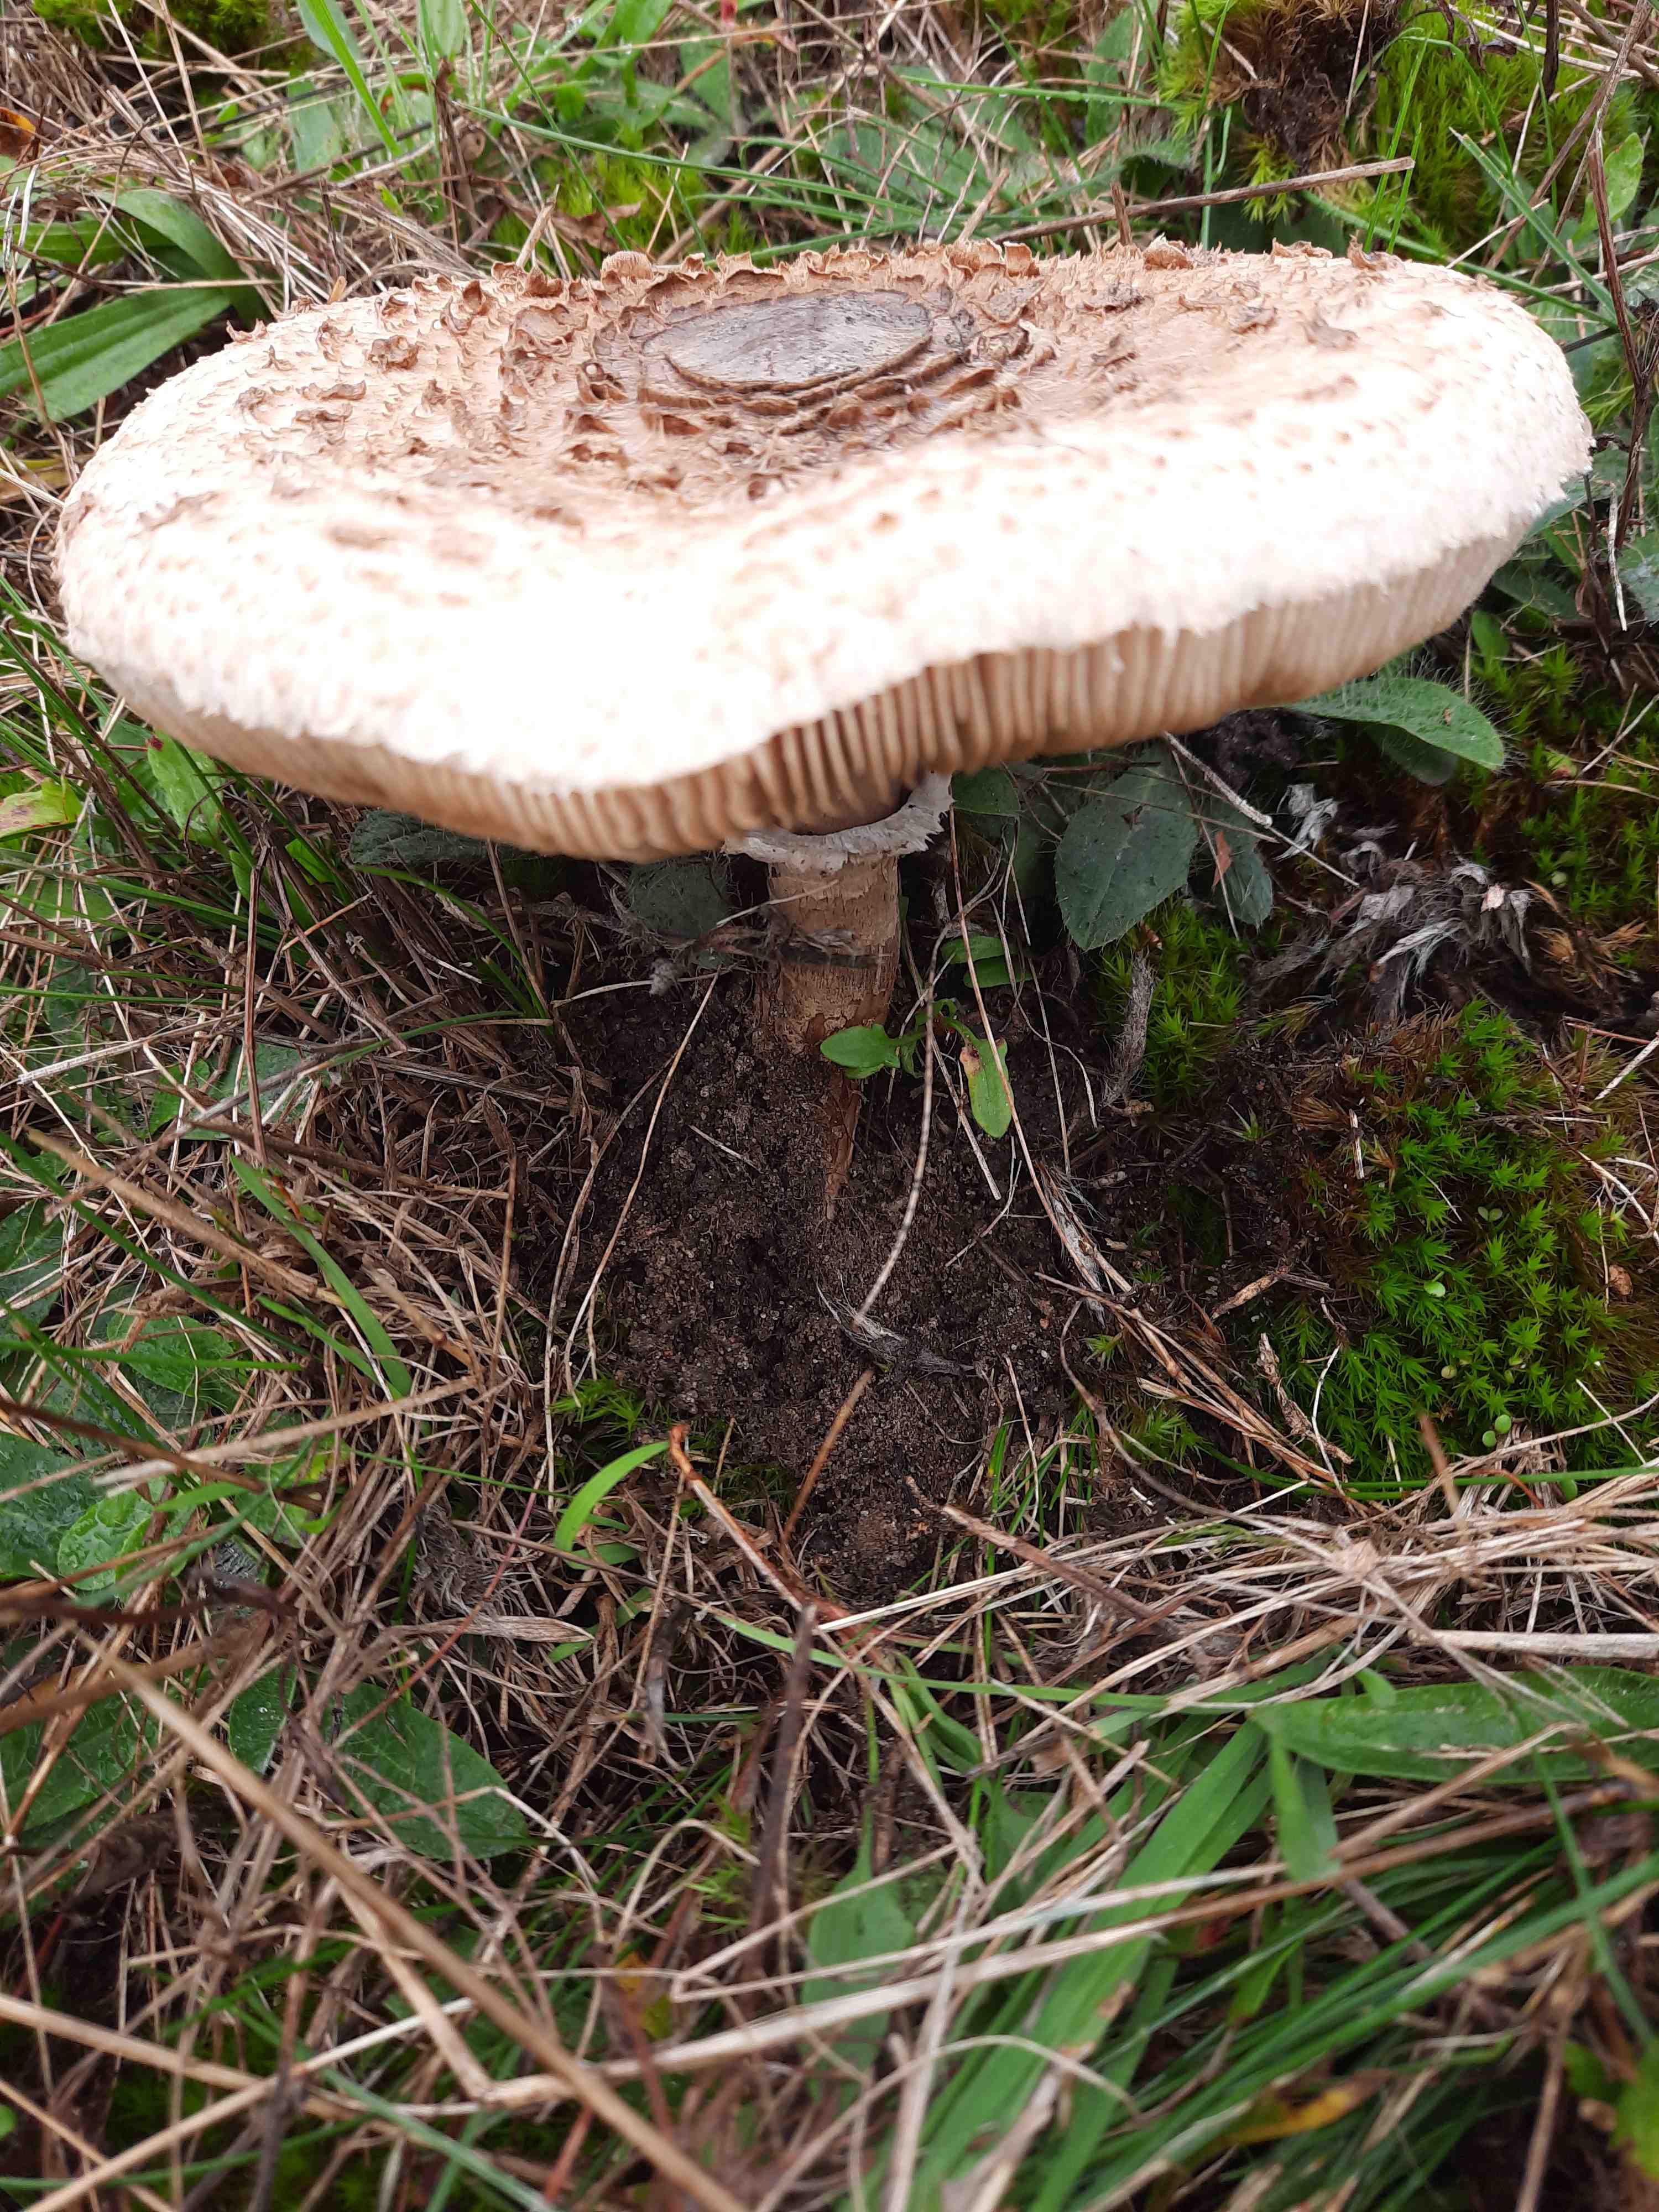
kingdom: Fungi
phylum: Basidiomycota
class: Agaricomycetes
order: Agaricales
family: Agaricaceae
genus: Macrolepiota
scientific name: Macrolepiota procera
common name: stor kæmpeparasolhat
